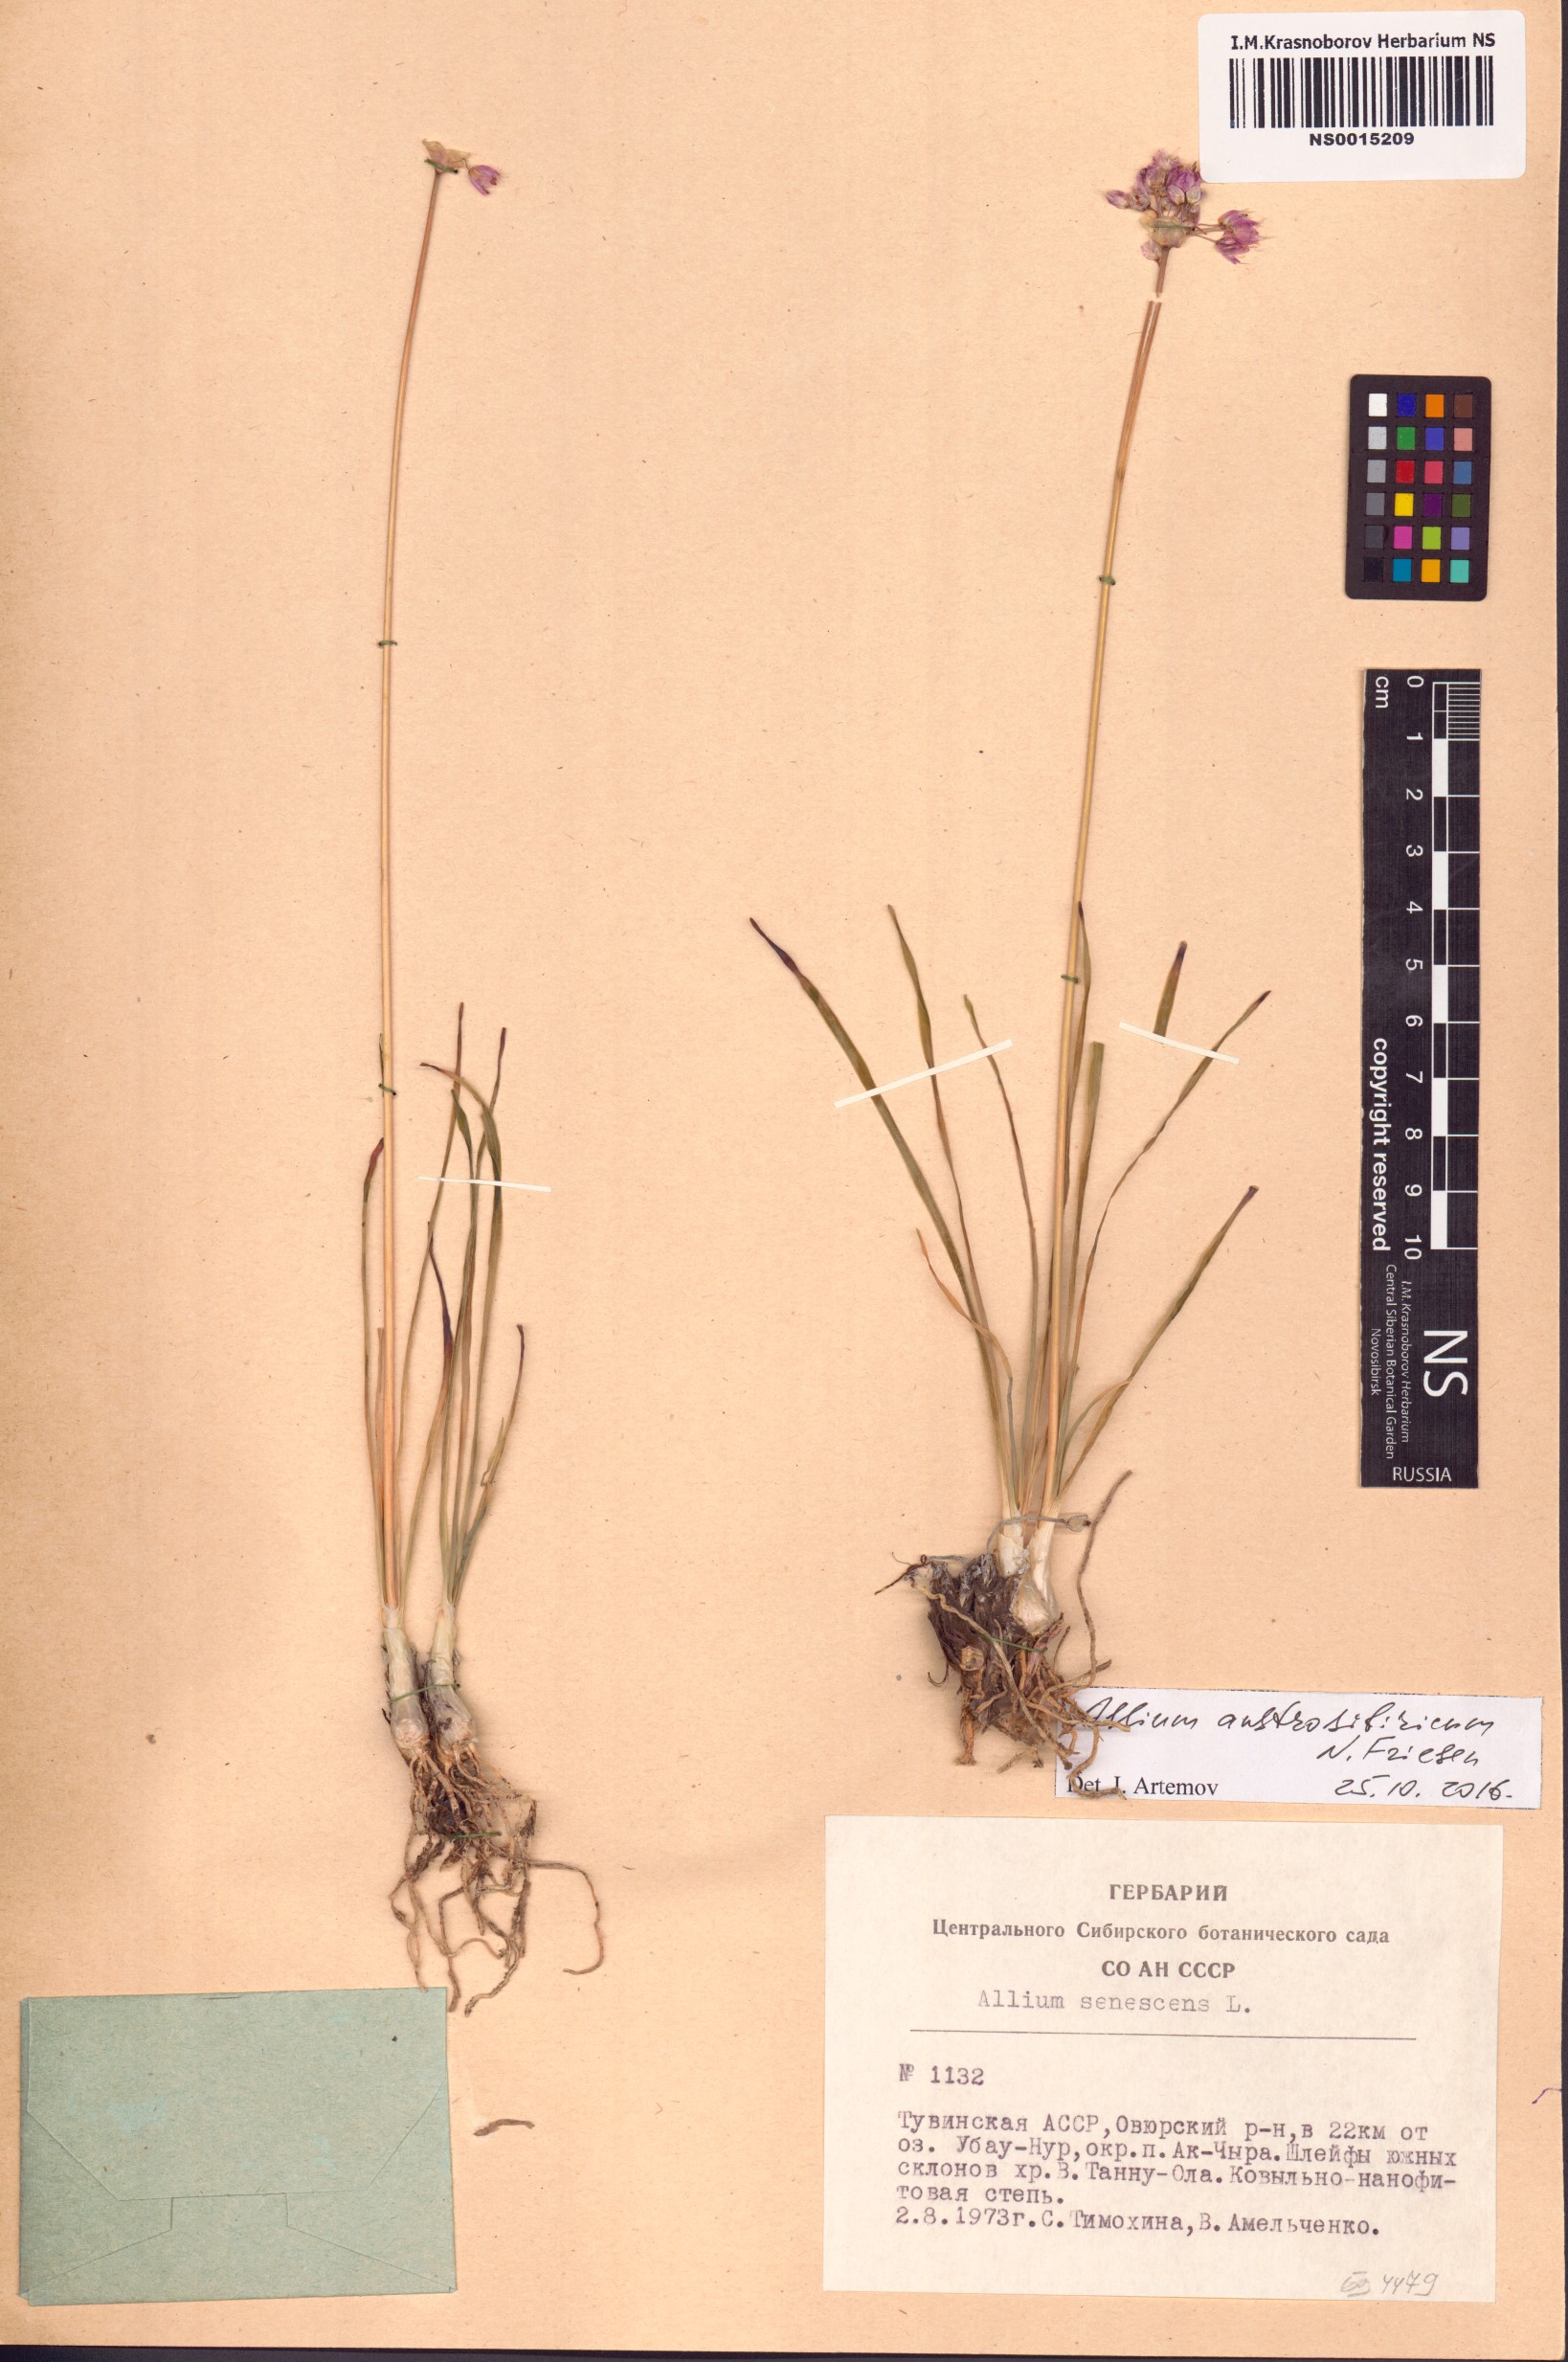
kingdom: Plantae
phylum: Tracheophyta
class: Liliopsida
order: Asparagales
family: Amaryllidaceae
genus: Allium
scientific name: Allium austrosibiricum
